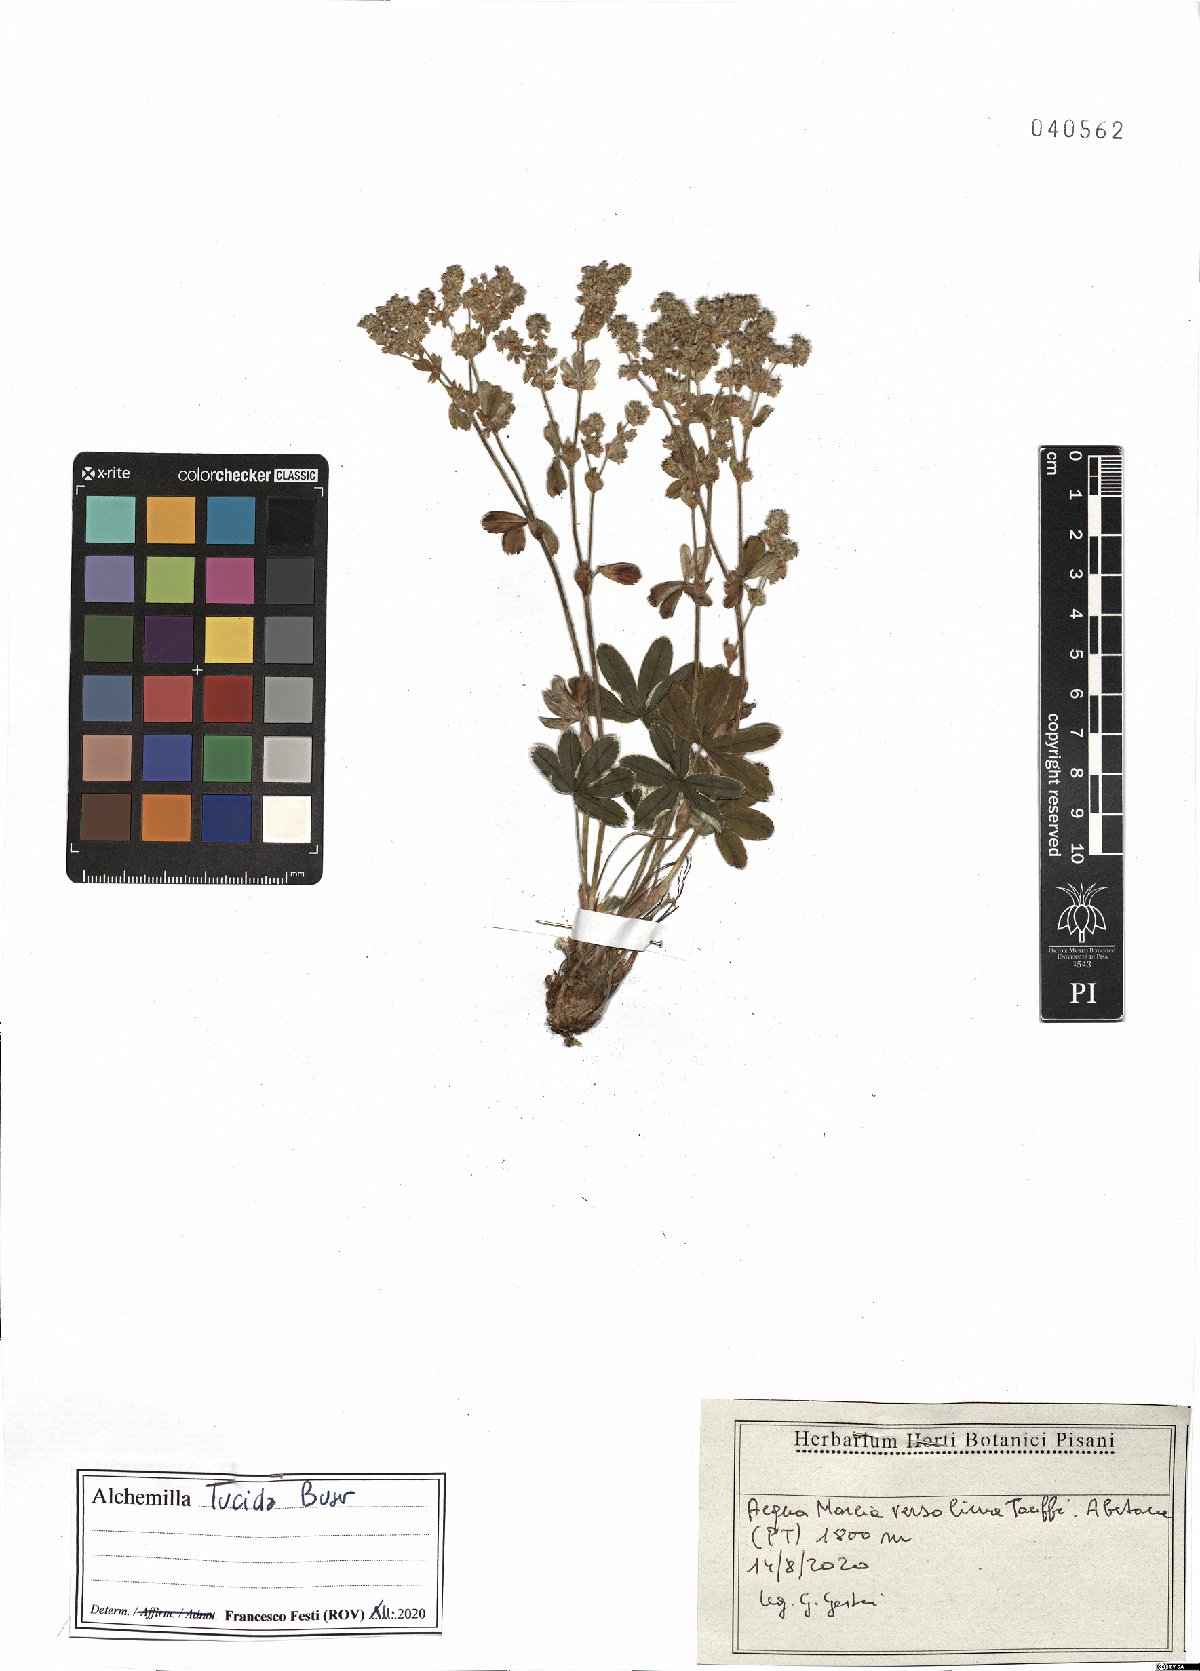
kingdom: Plantae
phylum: Tracheophyta
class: Magnoliopsida
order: Rosales
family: Rosaceae
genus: Alchemilla
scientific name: Alchemilla lucida
